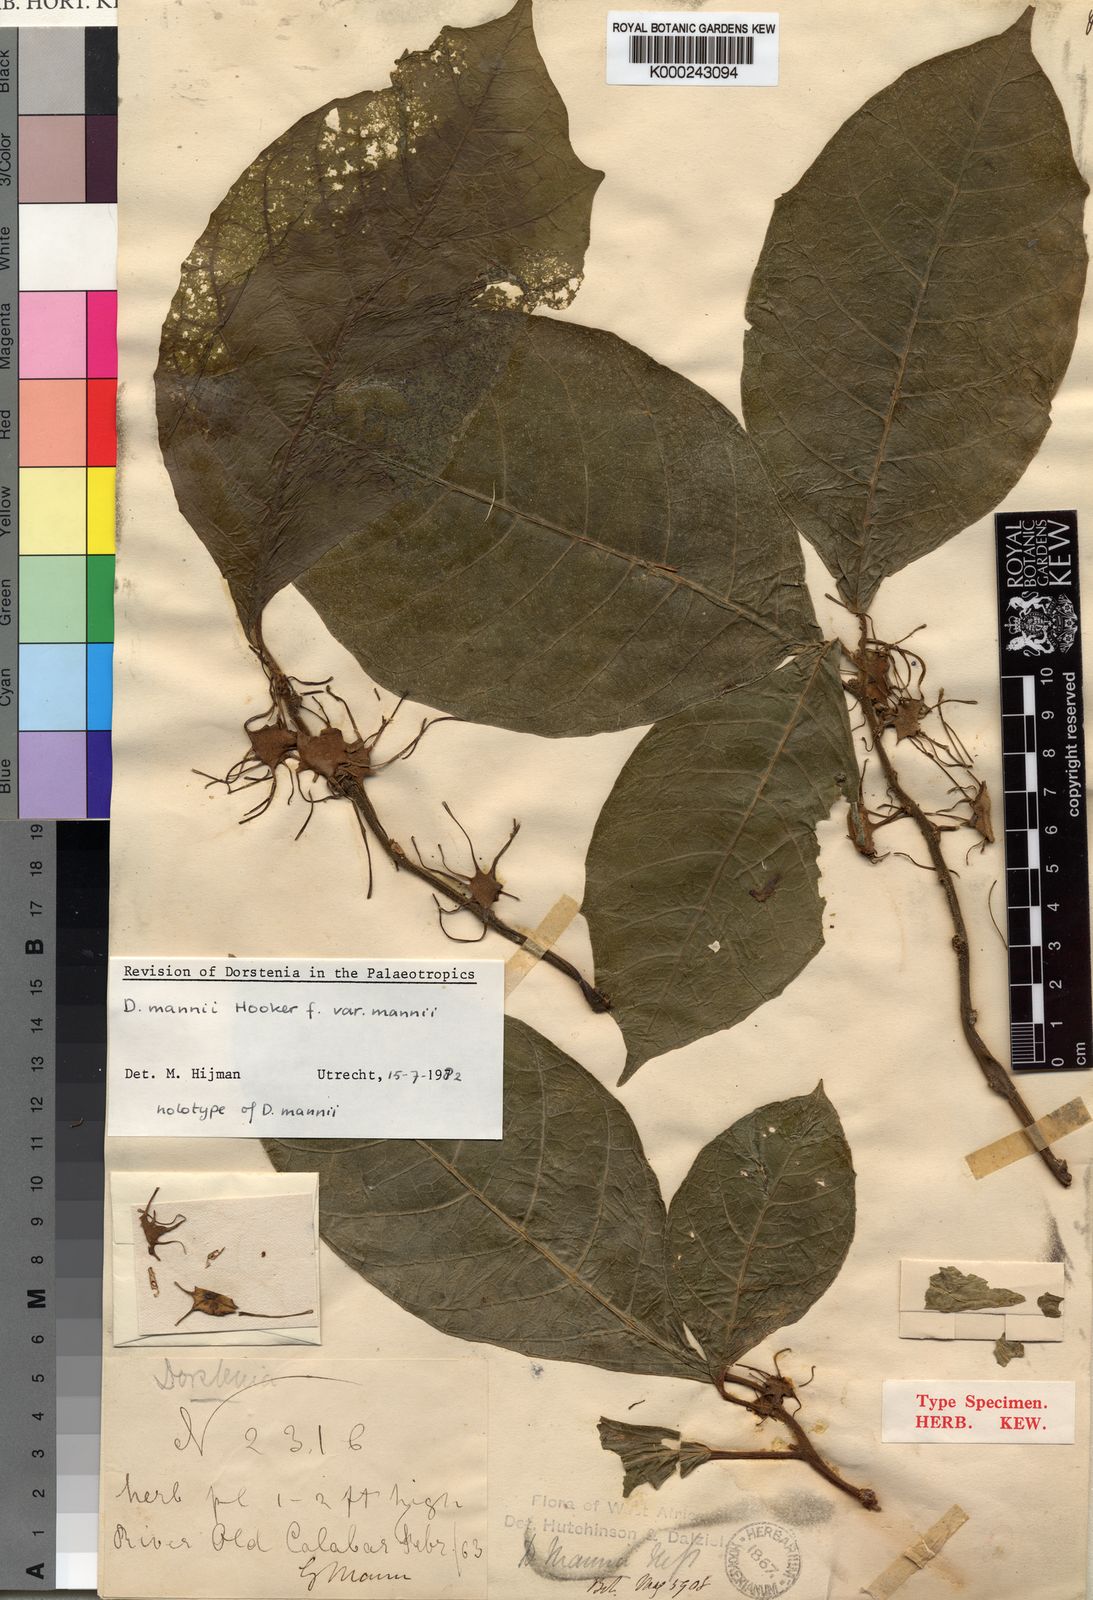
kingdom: Plantae
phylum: Tracheophyta
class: Magnoliopsida
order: Rosales
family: Moraceae
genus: Dorstenia
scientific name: Dorstenia mannii
